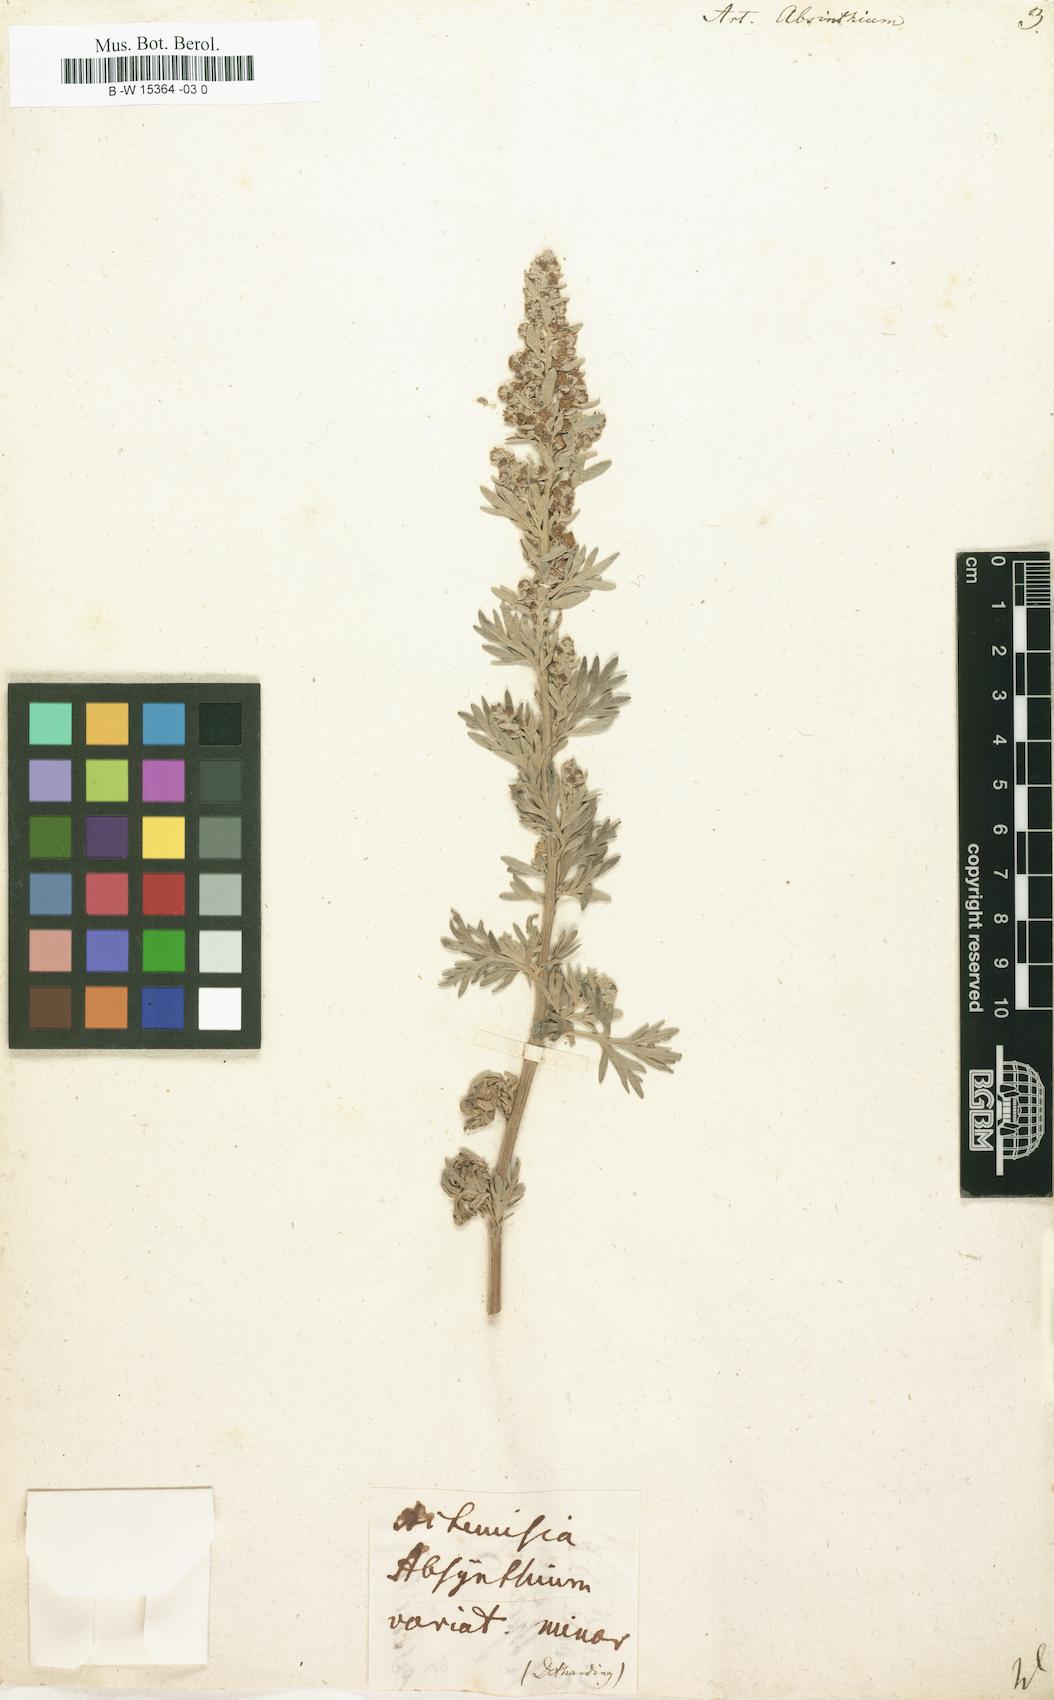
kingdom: Plantae
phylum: Tracheophyta
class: Magnoliopsida
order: Asterales
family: Asteraceae
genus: Artemisia
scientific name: Artemisia absinthium
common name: Wormwood
